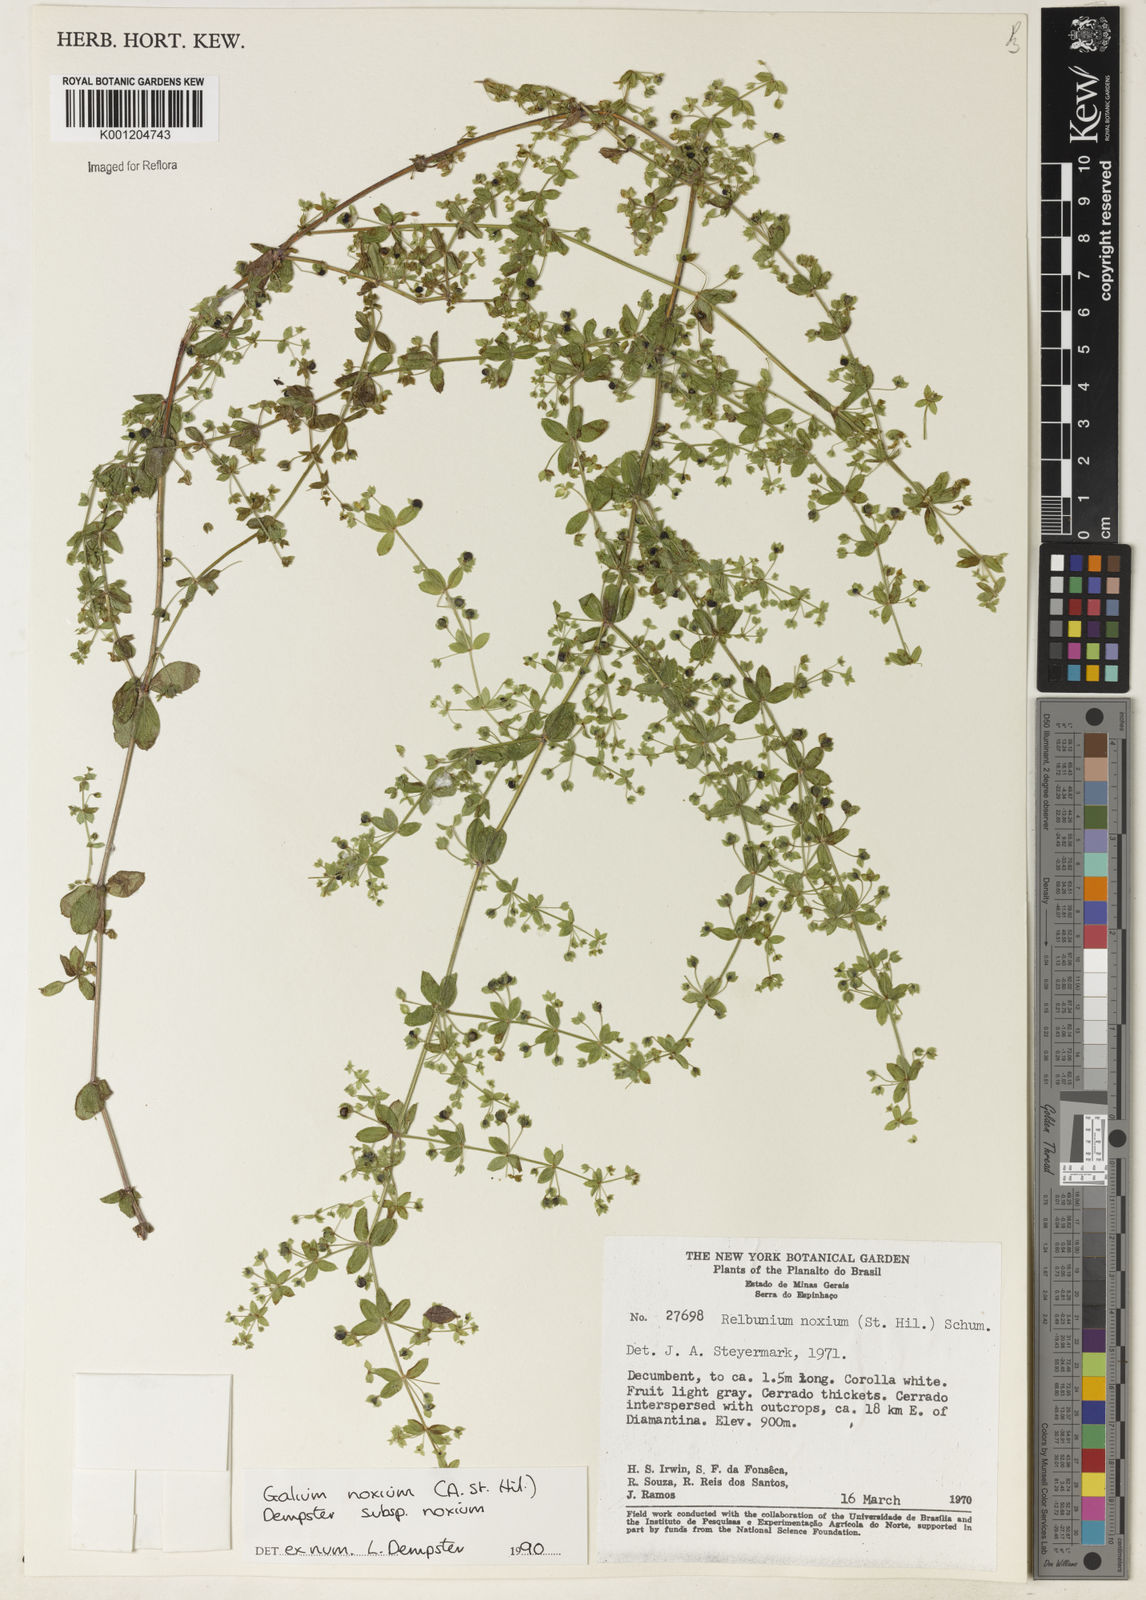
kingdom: Plantae
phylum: Tracheophyta
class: Magnoliopsida
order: Gentianales
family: Rubiaceae
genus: Galium
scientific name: Galium noxium
